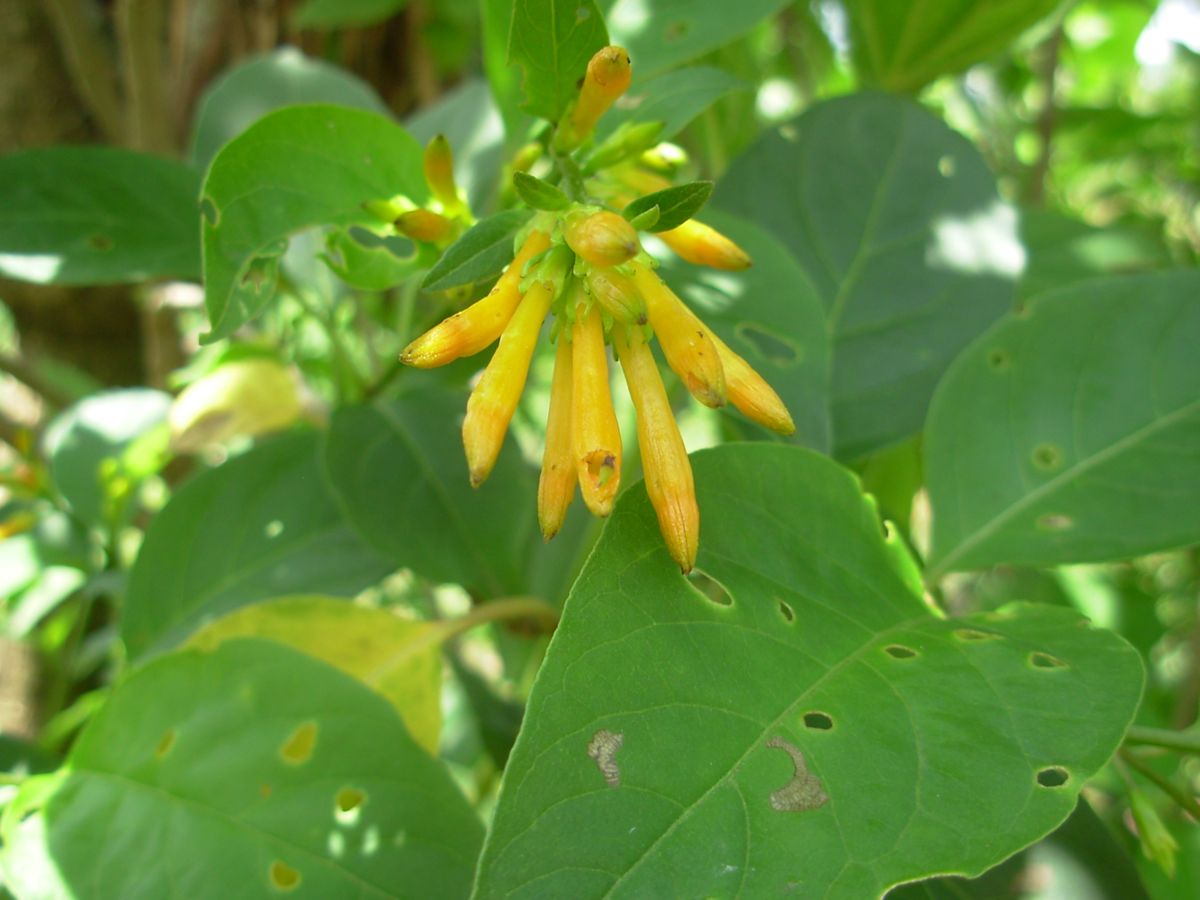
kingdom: Plantae
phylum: Tracheophyta
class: Magnoliopsida
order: Solanales
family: Solanaceae
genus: Cestrum
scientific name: Cestrum aurantiacum
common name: Orange cestrum
